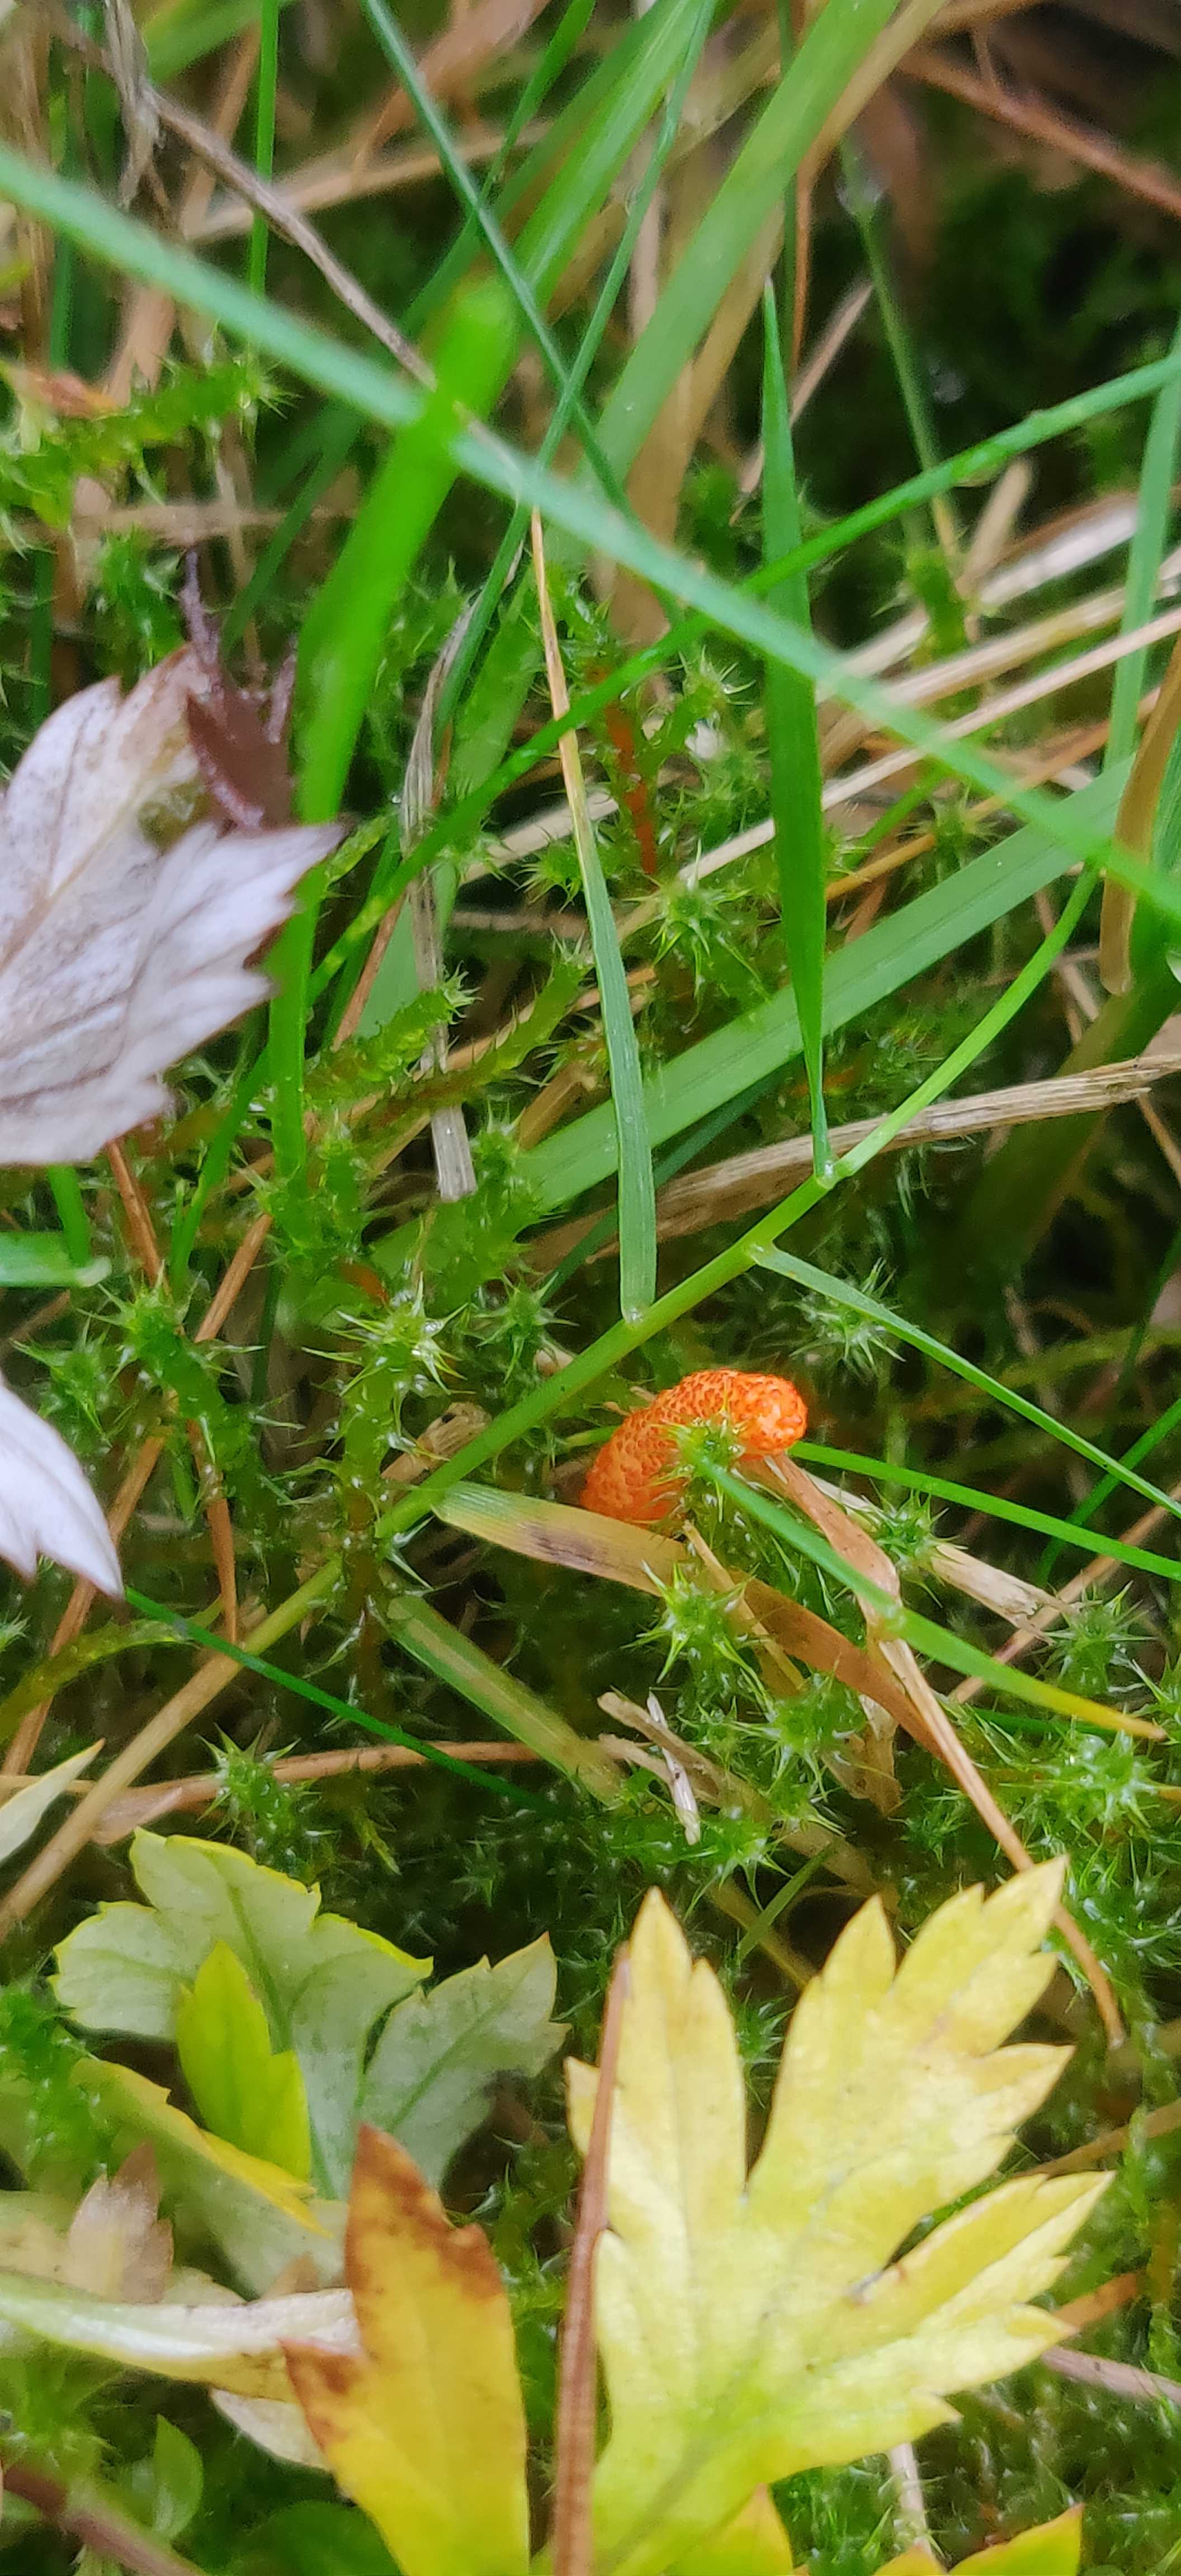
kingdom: Fungi
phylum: Ascomycota
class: Sordariomycetes
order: Hypocreales
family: Cordycipitaceae
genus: Cordyceps
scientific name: Cordyceps militaris
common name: puppe-snyltekølle
